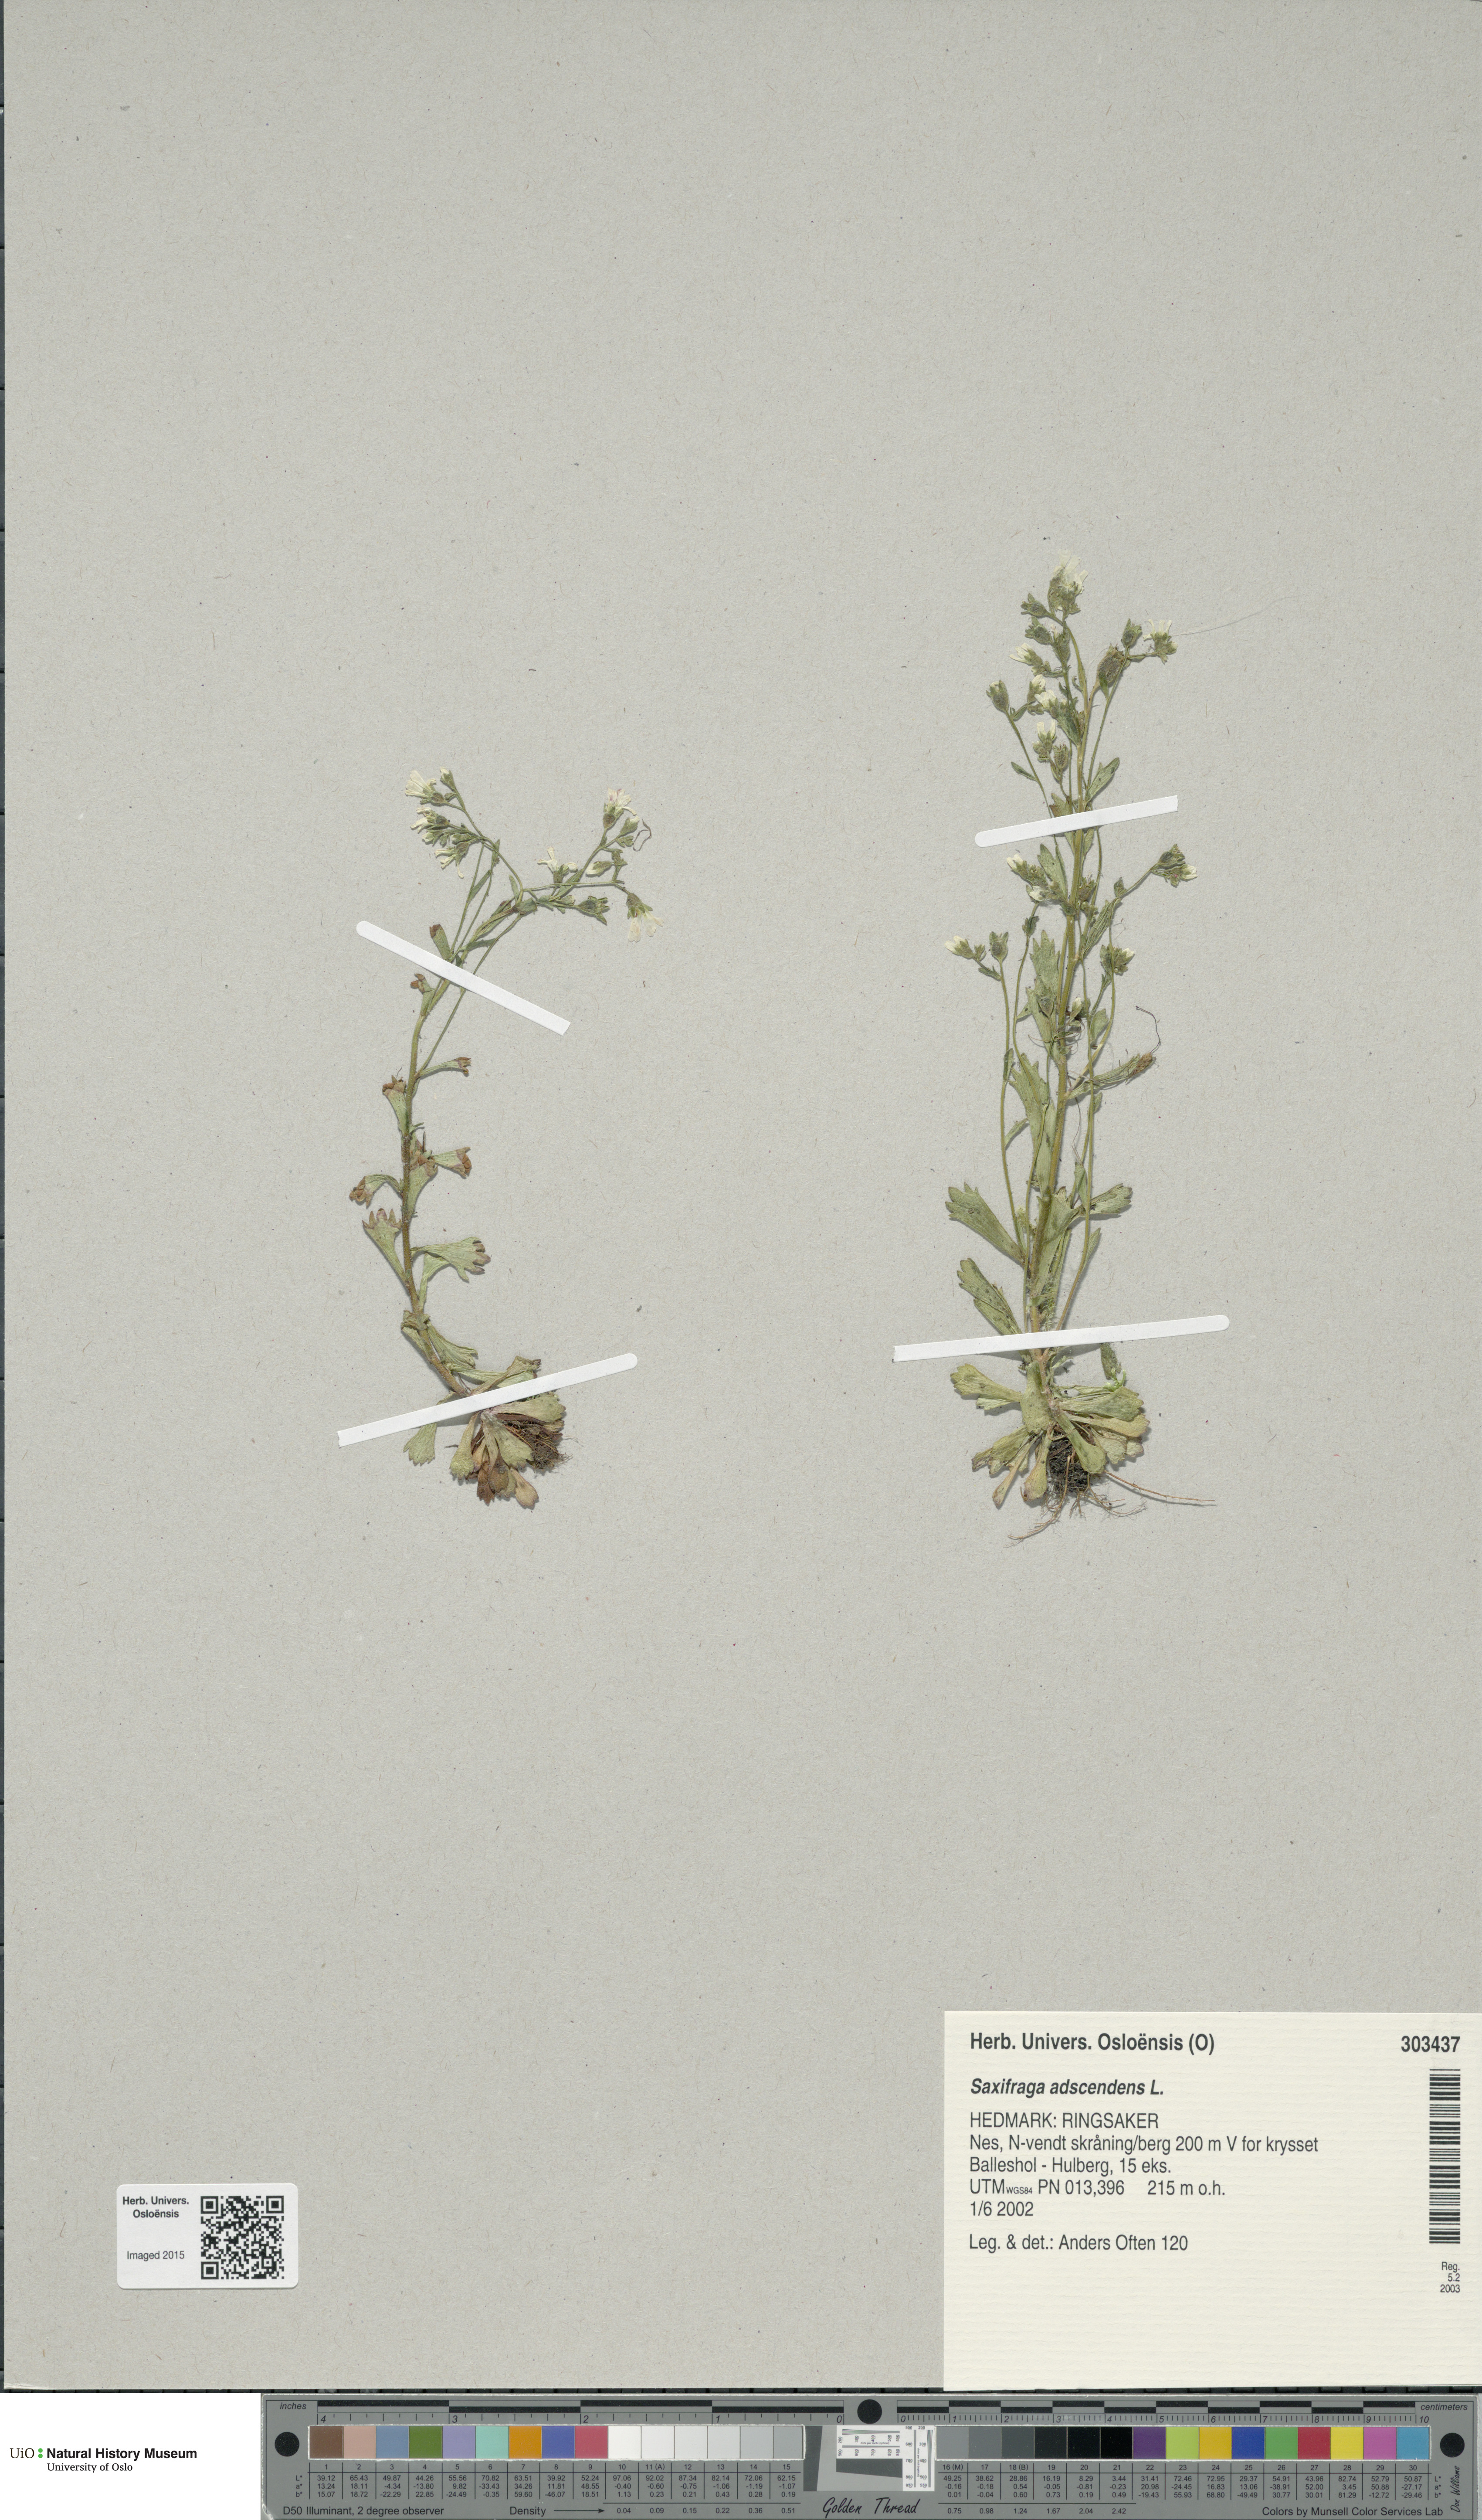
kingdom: Plantae
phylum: Tracheophyta
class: Magnoliopsida
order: Saxifragales
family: Saxifragaceae
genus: Saxifraga
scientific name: Saxifraga adscendens
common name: Ascending saxifrage
